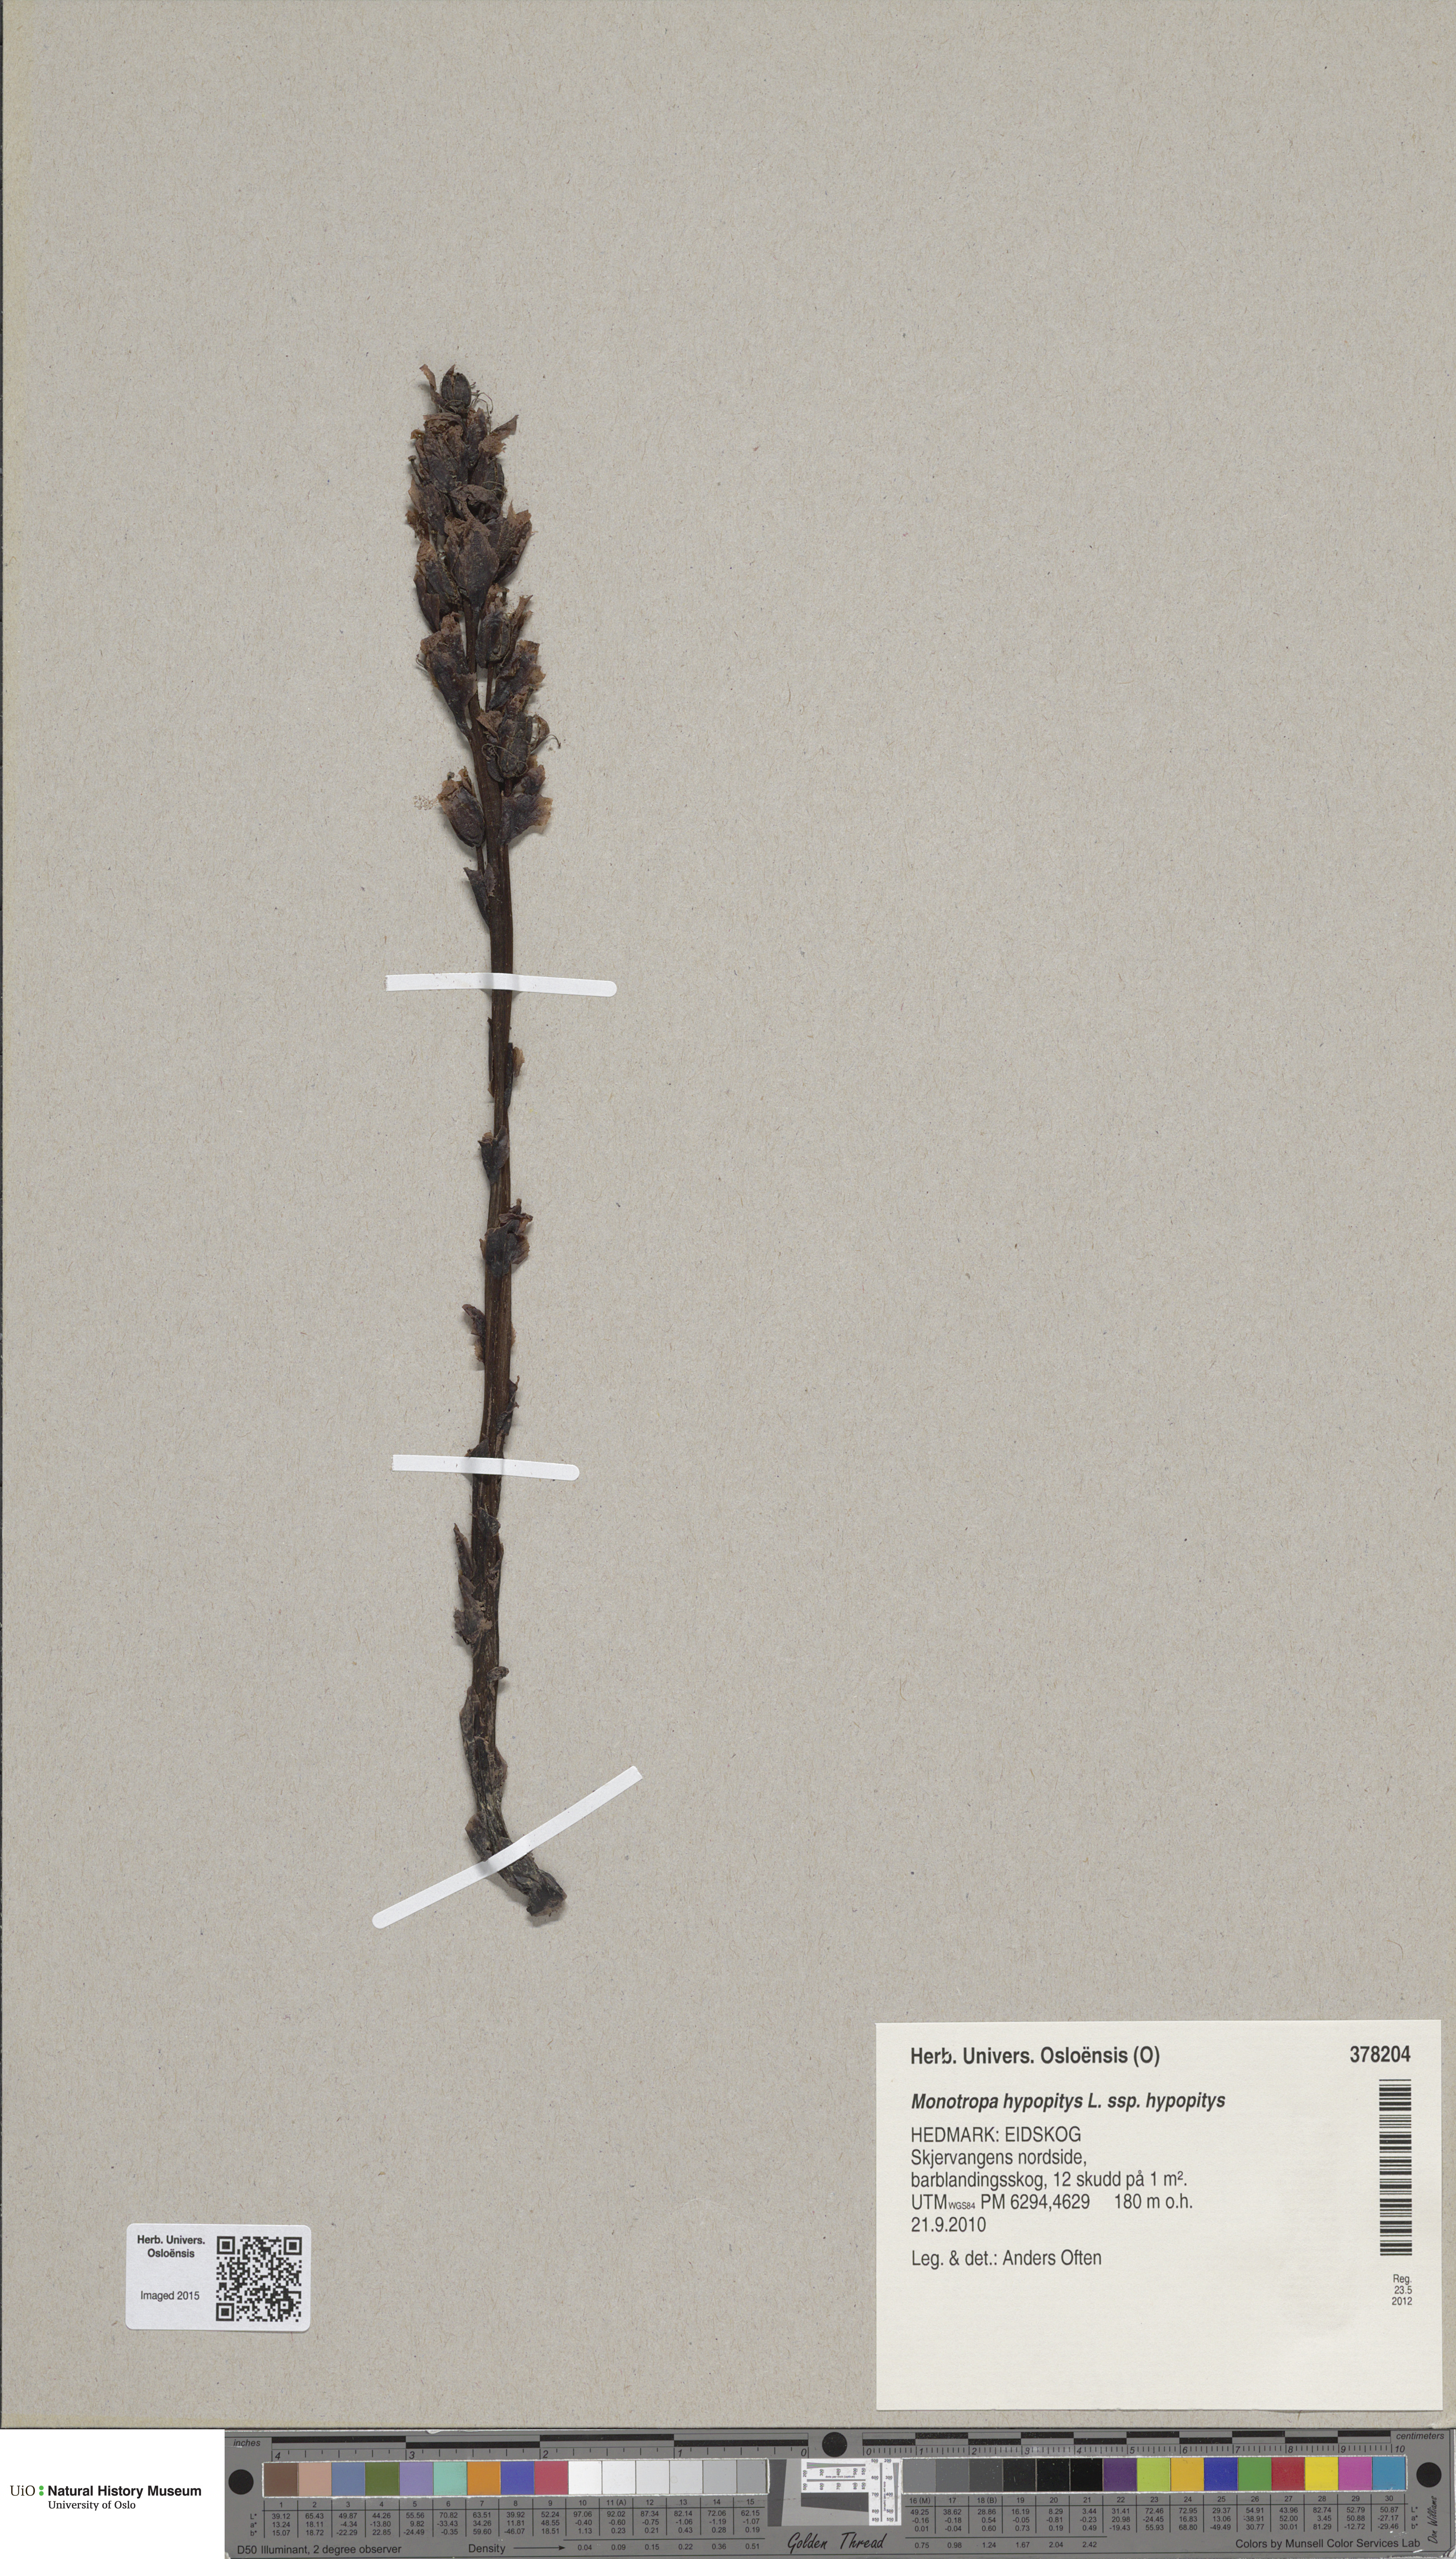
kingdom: Plantae
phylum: Tracheophyta
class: Magnoliopsida
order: Ericales
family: Ericaceae
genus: Hypopitys
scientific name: Hypopitys monotropa
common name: Yellow bird's-nest
